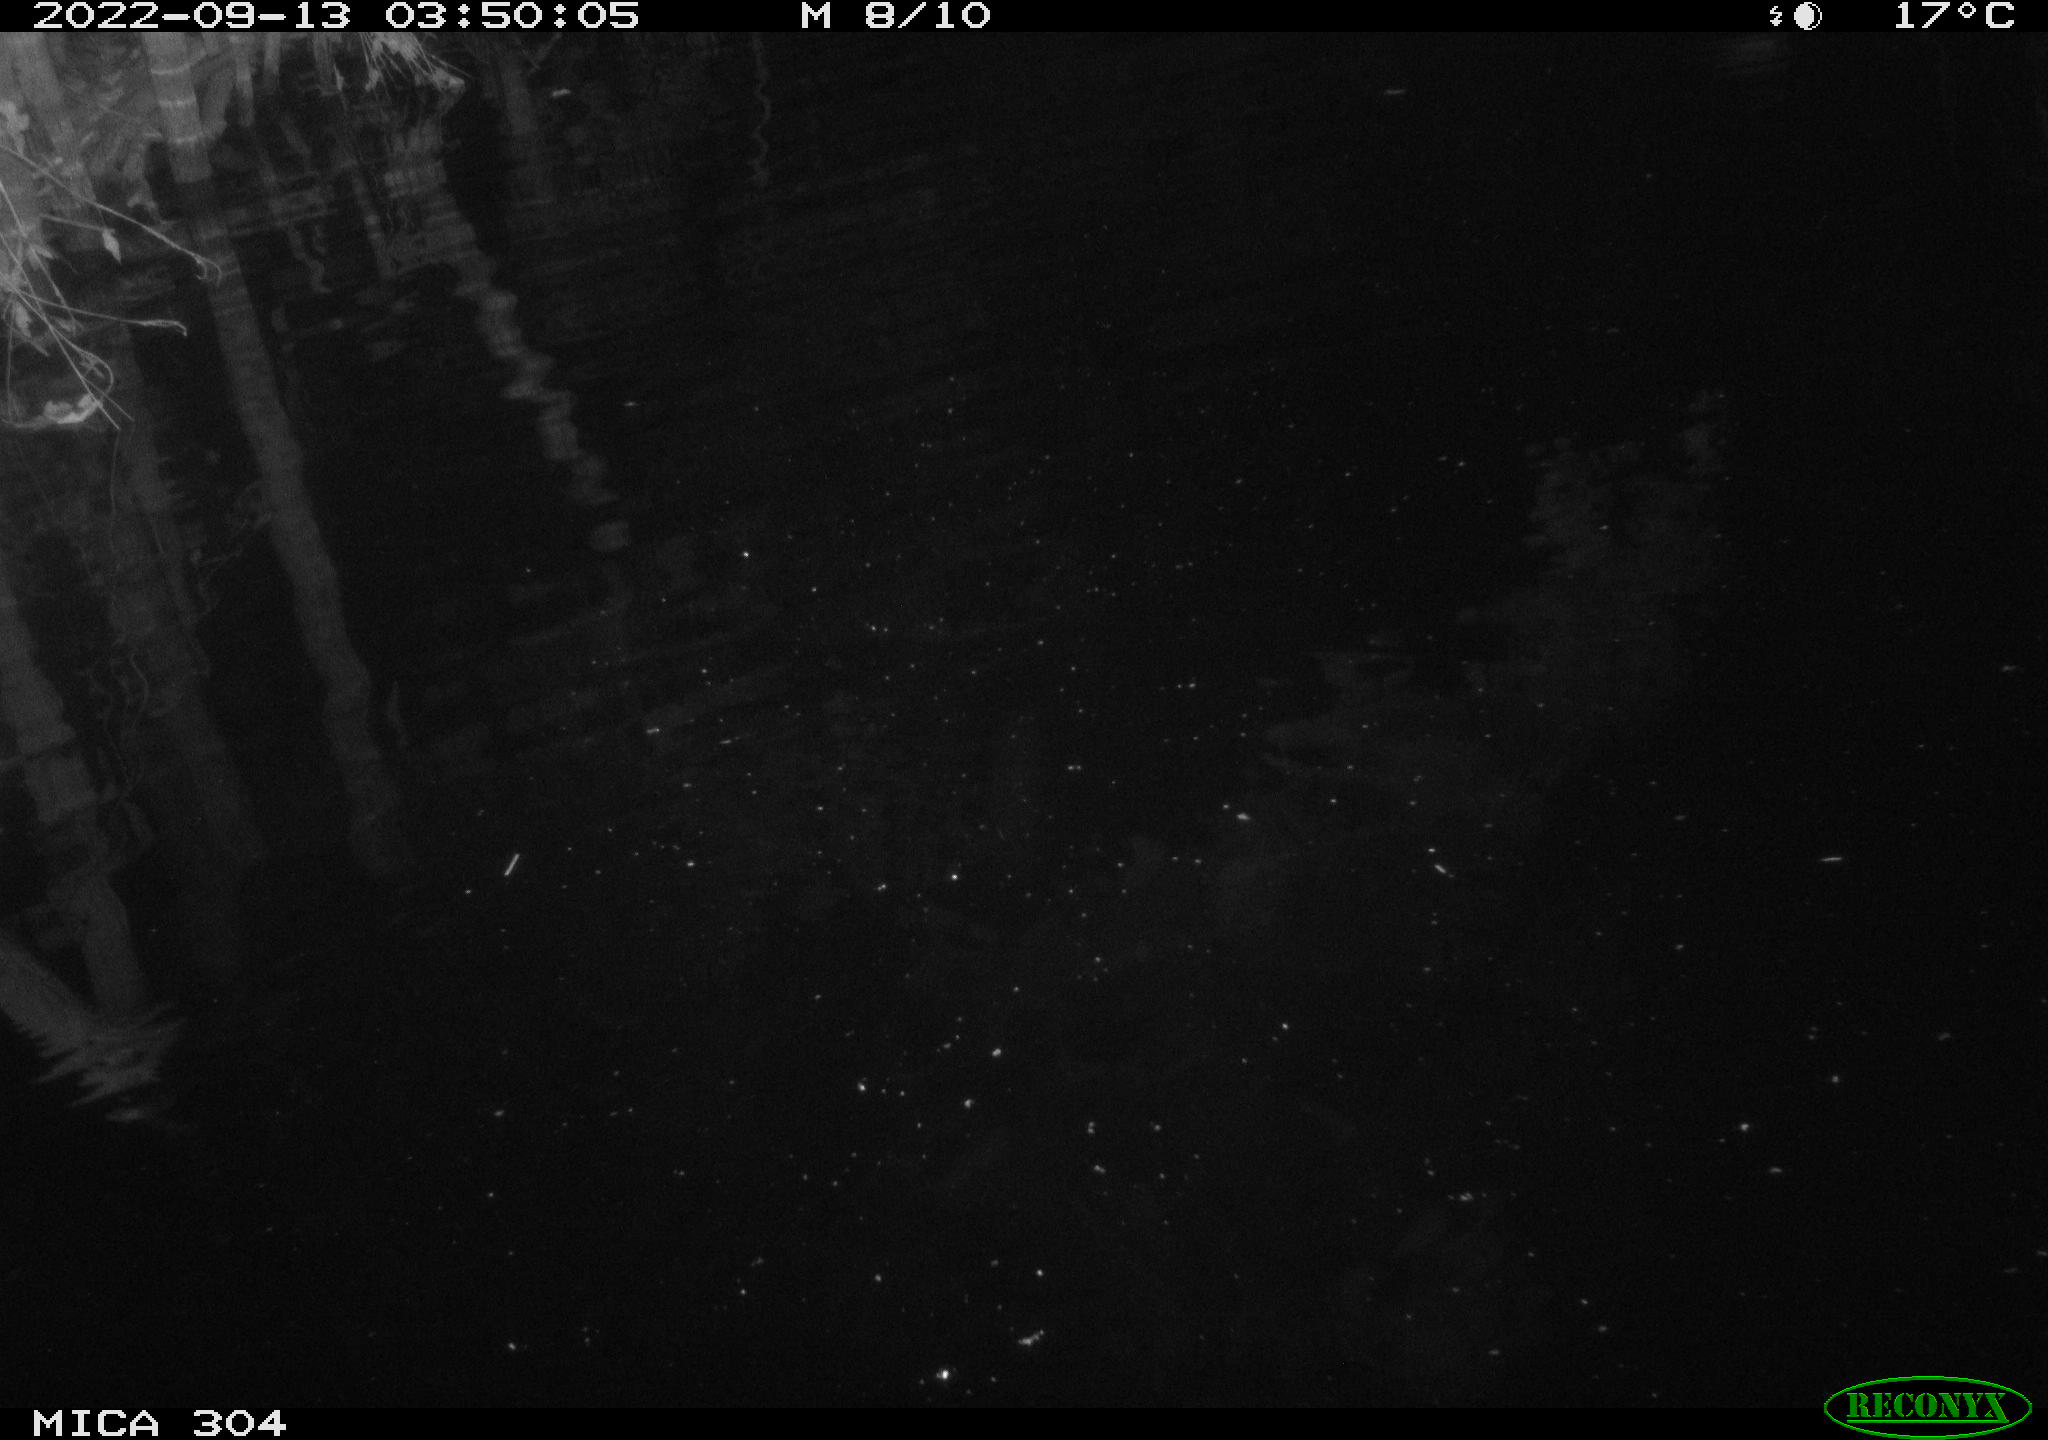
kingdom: Animalia
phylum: Chordata
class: Mammalia
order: Rodentia
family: Muridae
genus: Rattus
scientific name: Rattus norvegicus
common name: Brown rat
